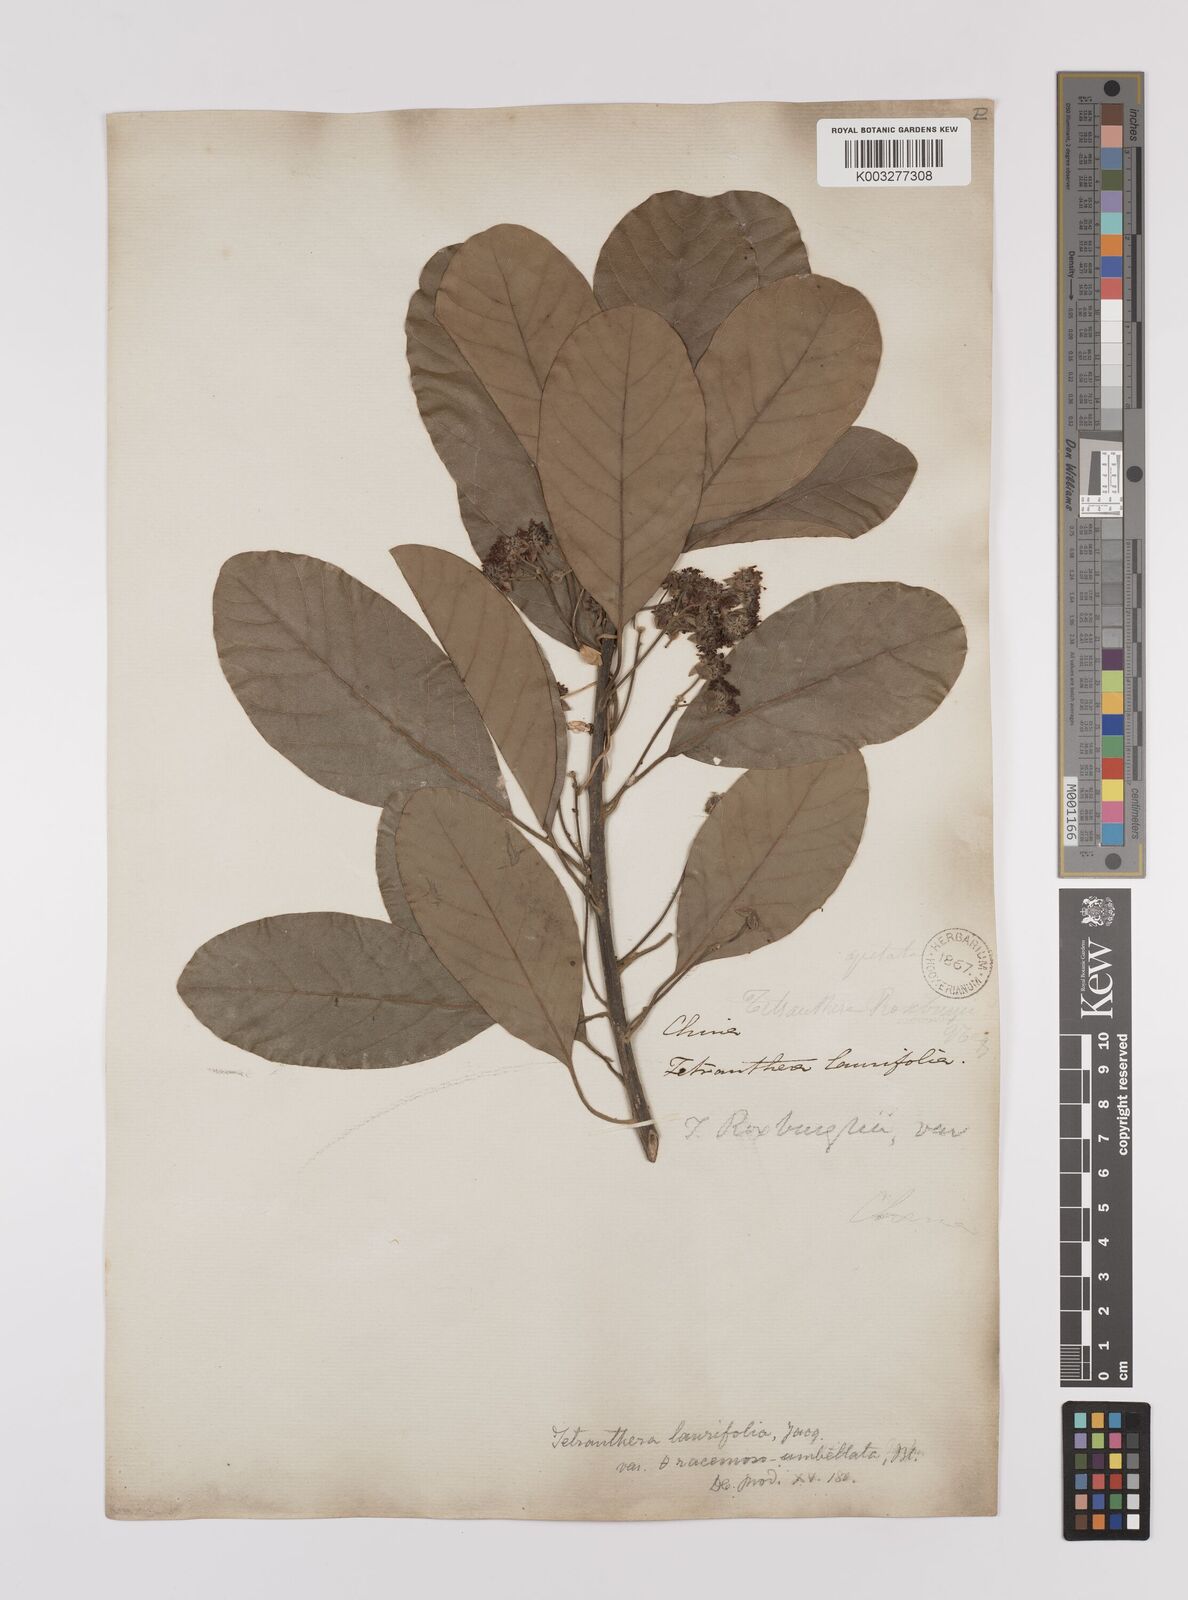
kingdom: Plantae
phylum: Tracheophyta
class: Magnoliopsida
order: Laurales
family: Lauraceae
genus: Litsea
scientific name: Litsea glutinosa
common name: Indian-laurel
